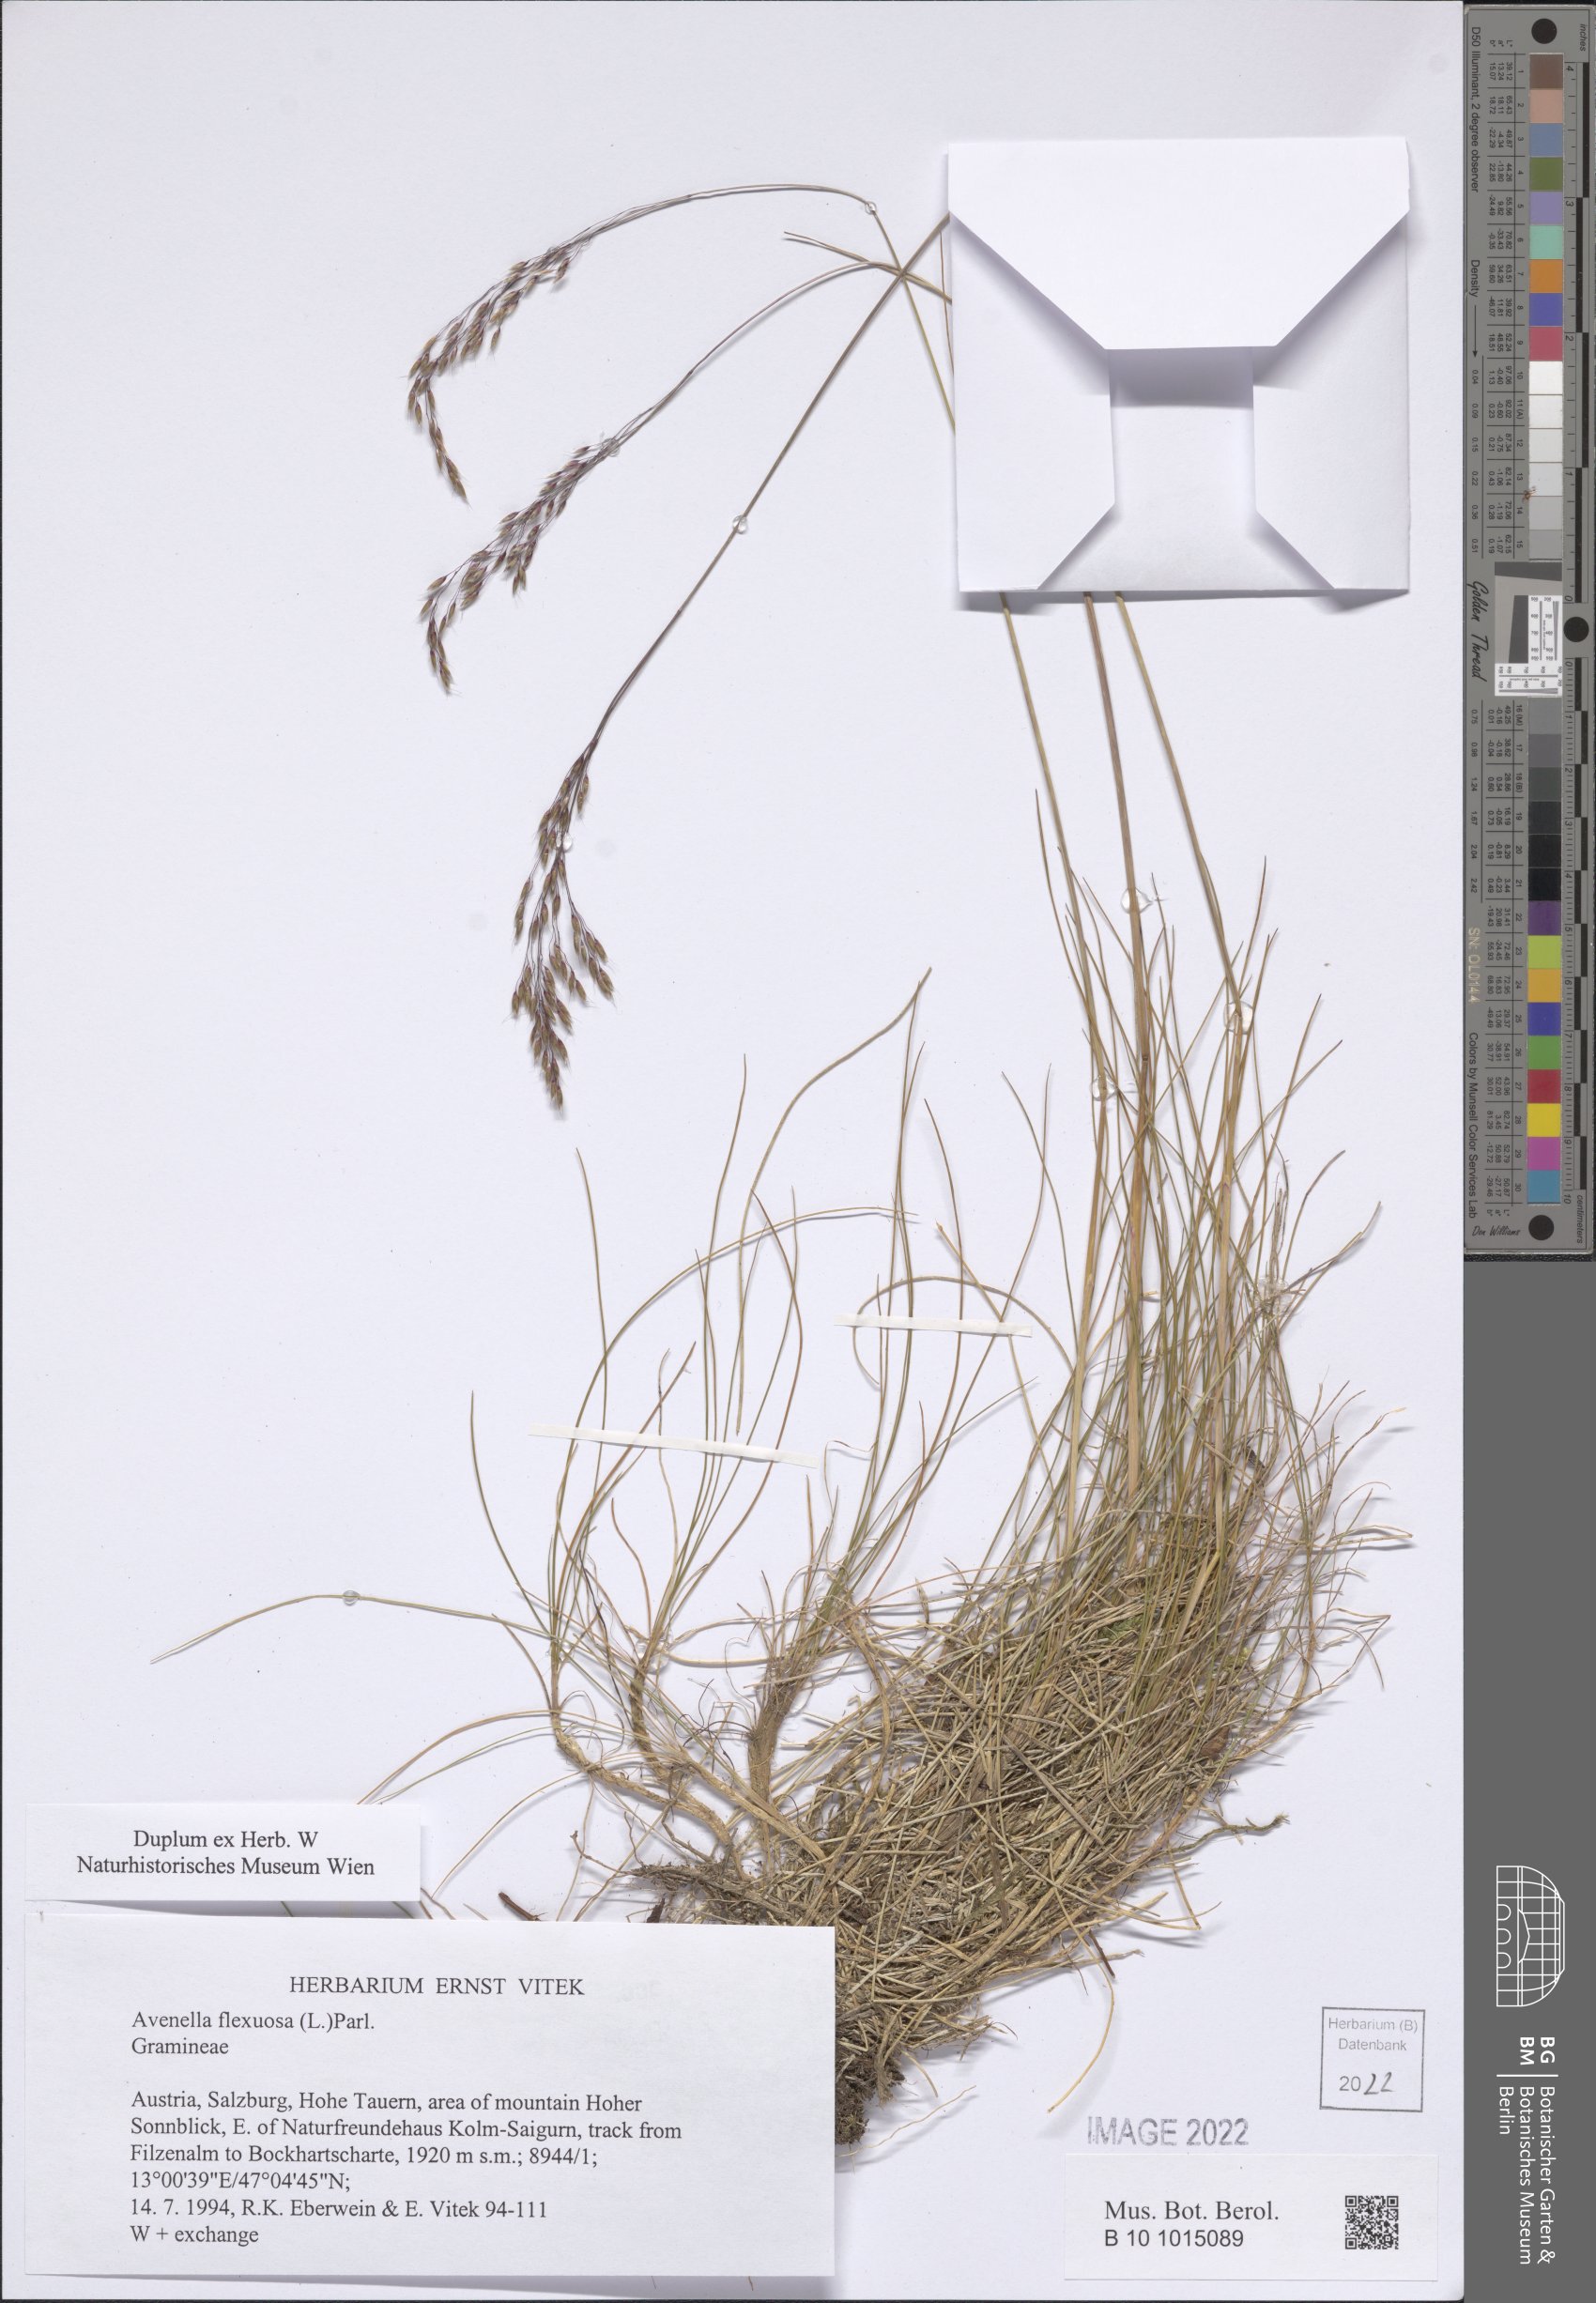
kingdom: Plantae
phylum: Tracheophyta
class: Liliopsida
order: Poales
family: Poaceae
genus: Avenella
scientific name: Avenella flexuosa
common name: Wavy hairgrass
